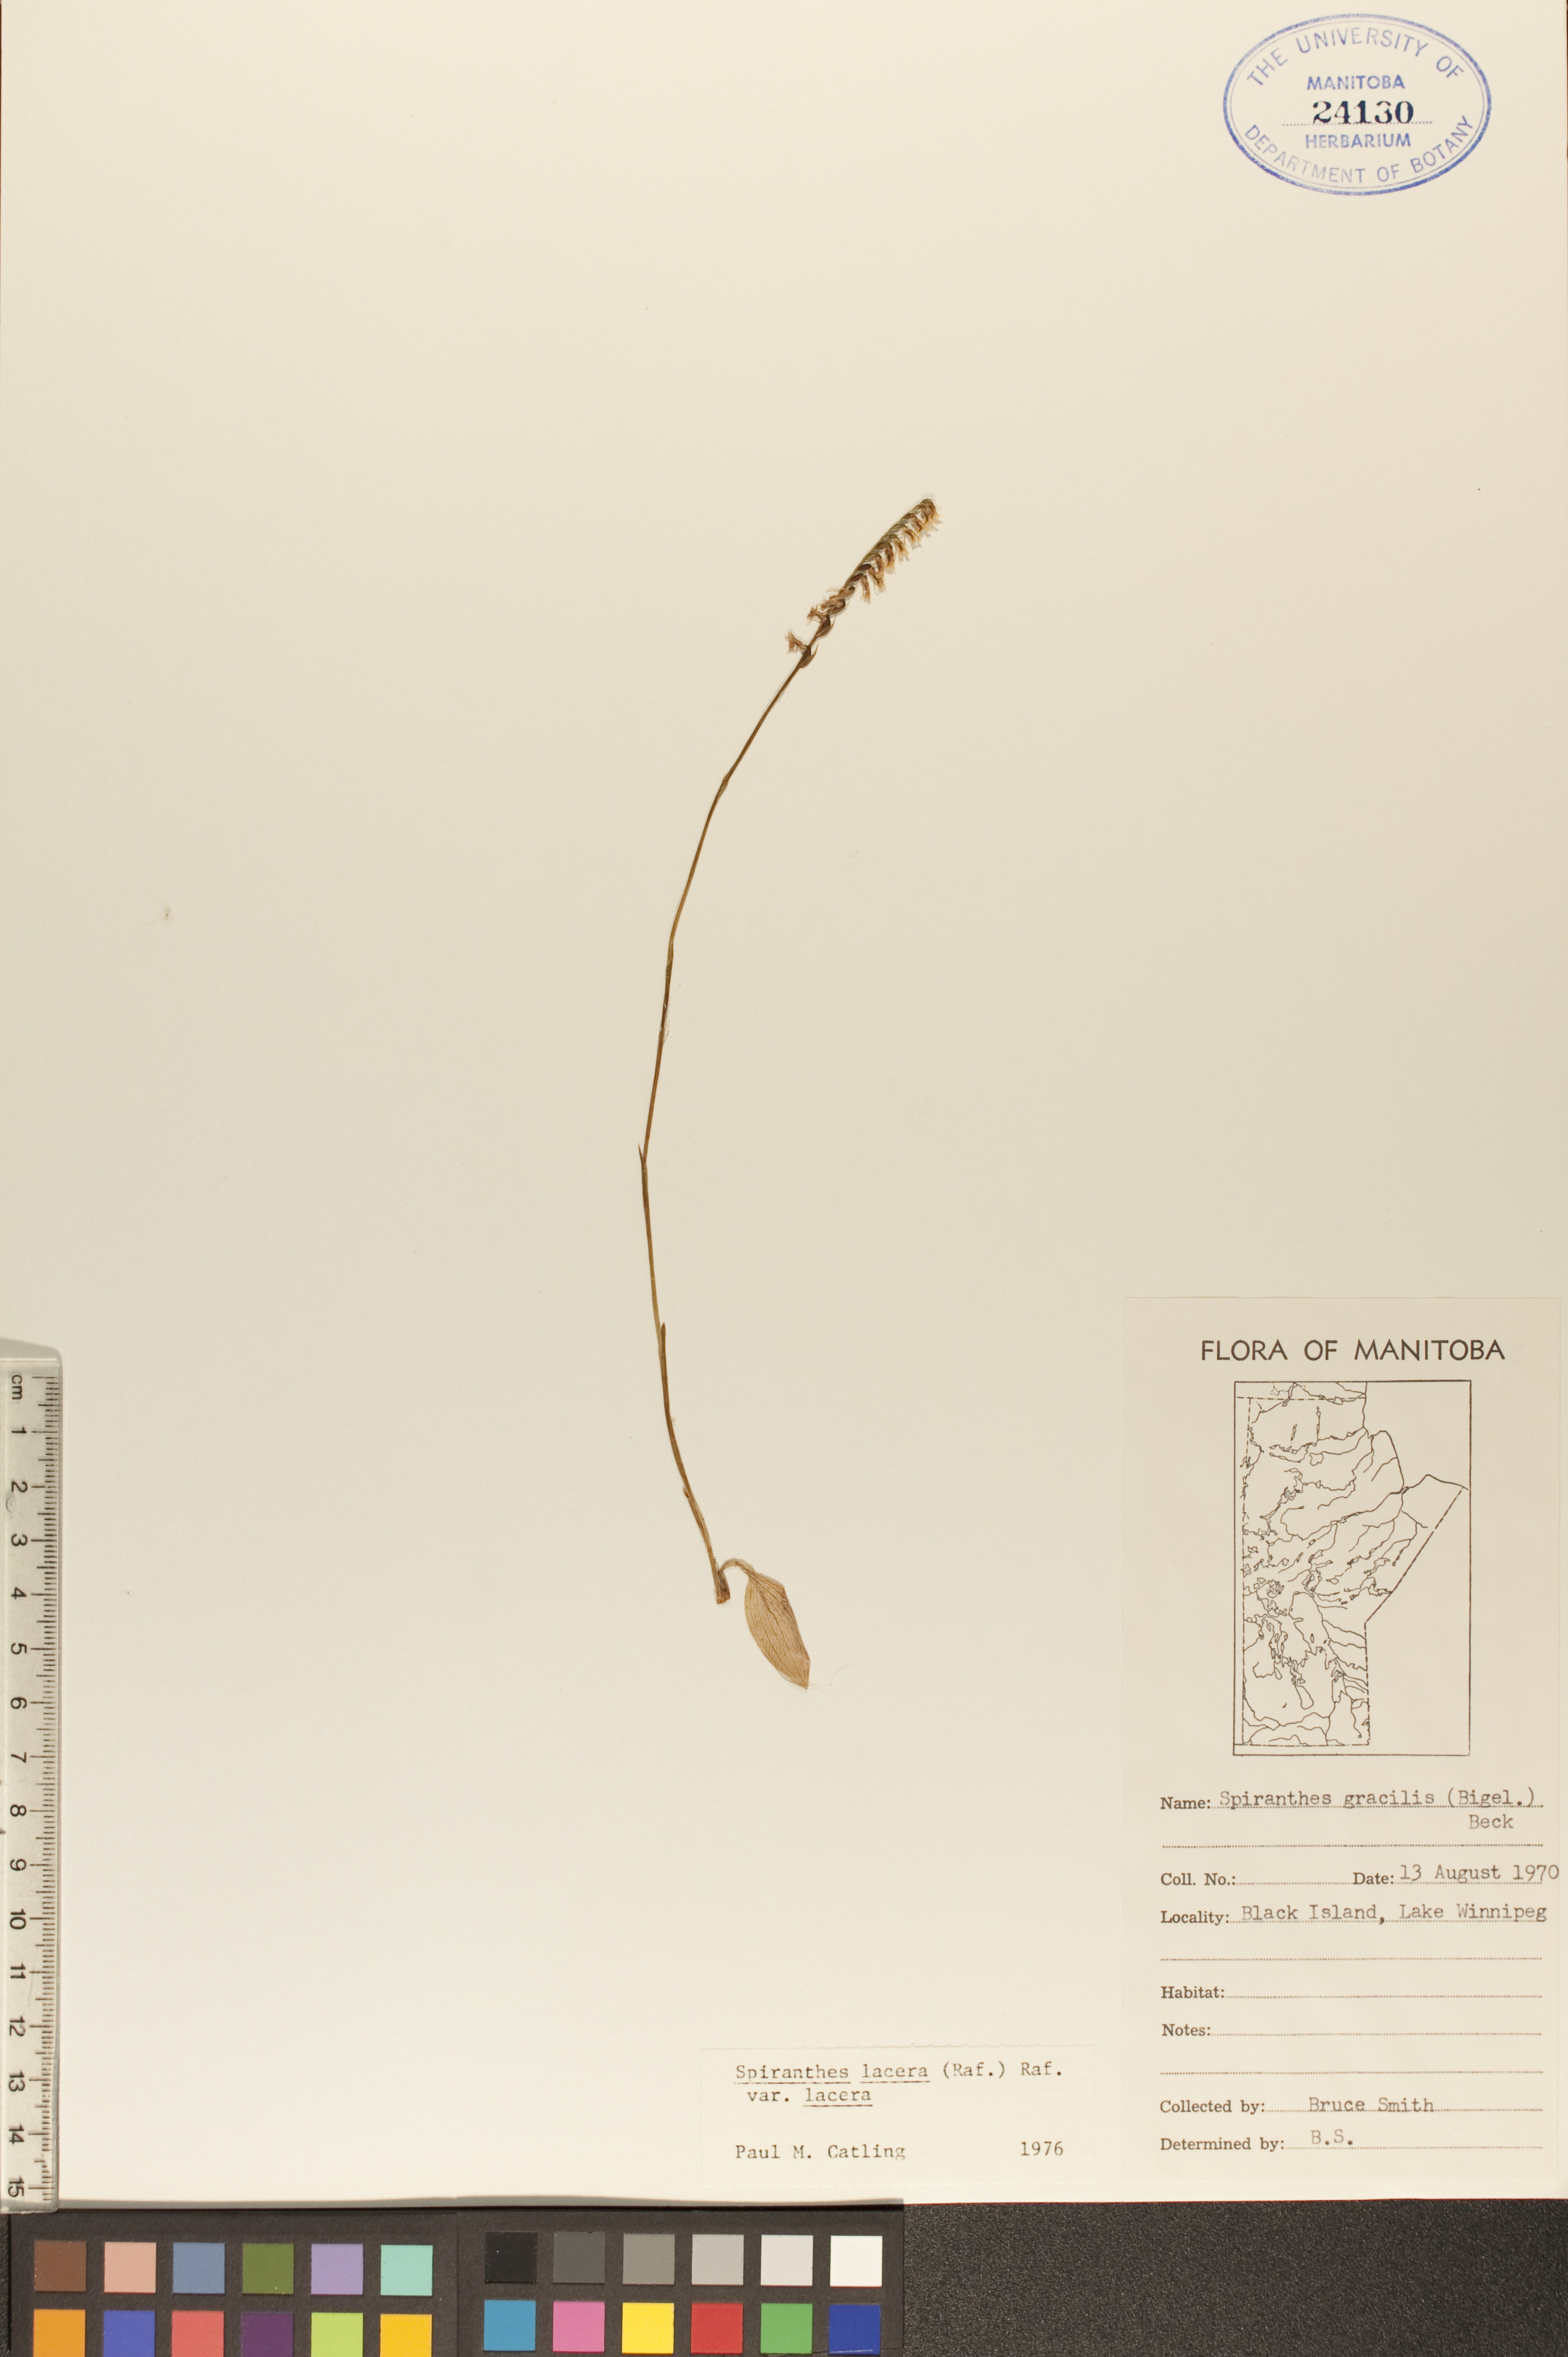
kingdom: Plantae
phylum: Tracheophyta
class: Liliopsida
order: Asparagales
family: Orchidaceae
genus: Spiranthes
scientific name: Spiranthes lacera
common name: Northern slender ladies'-tresses
